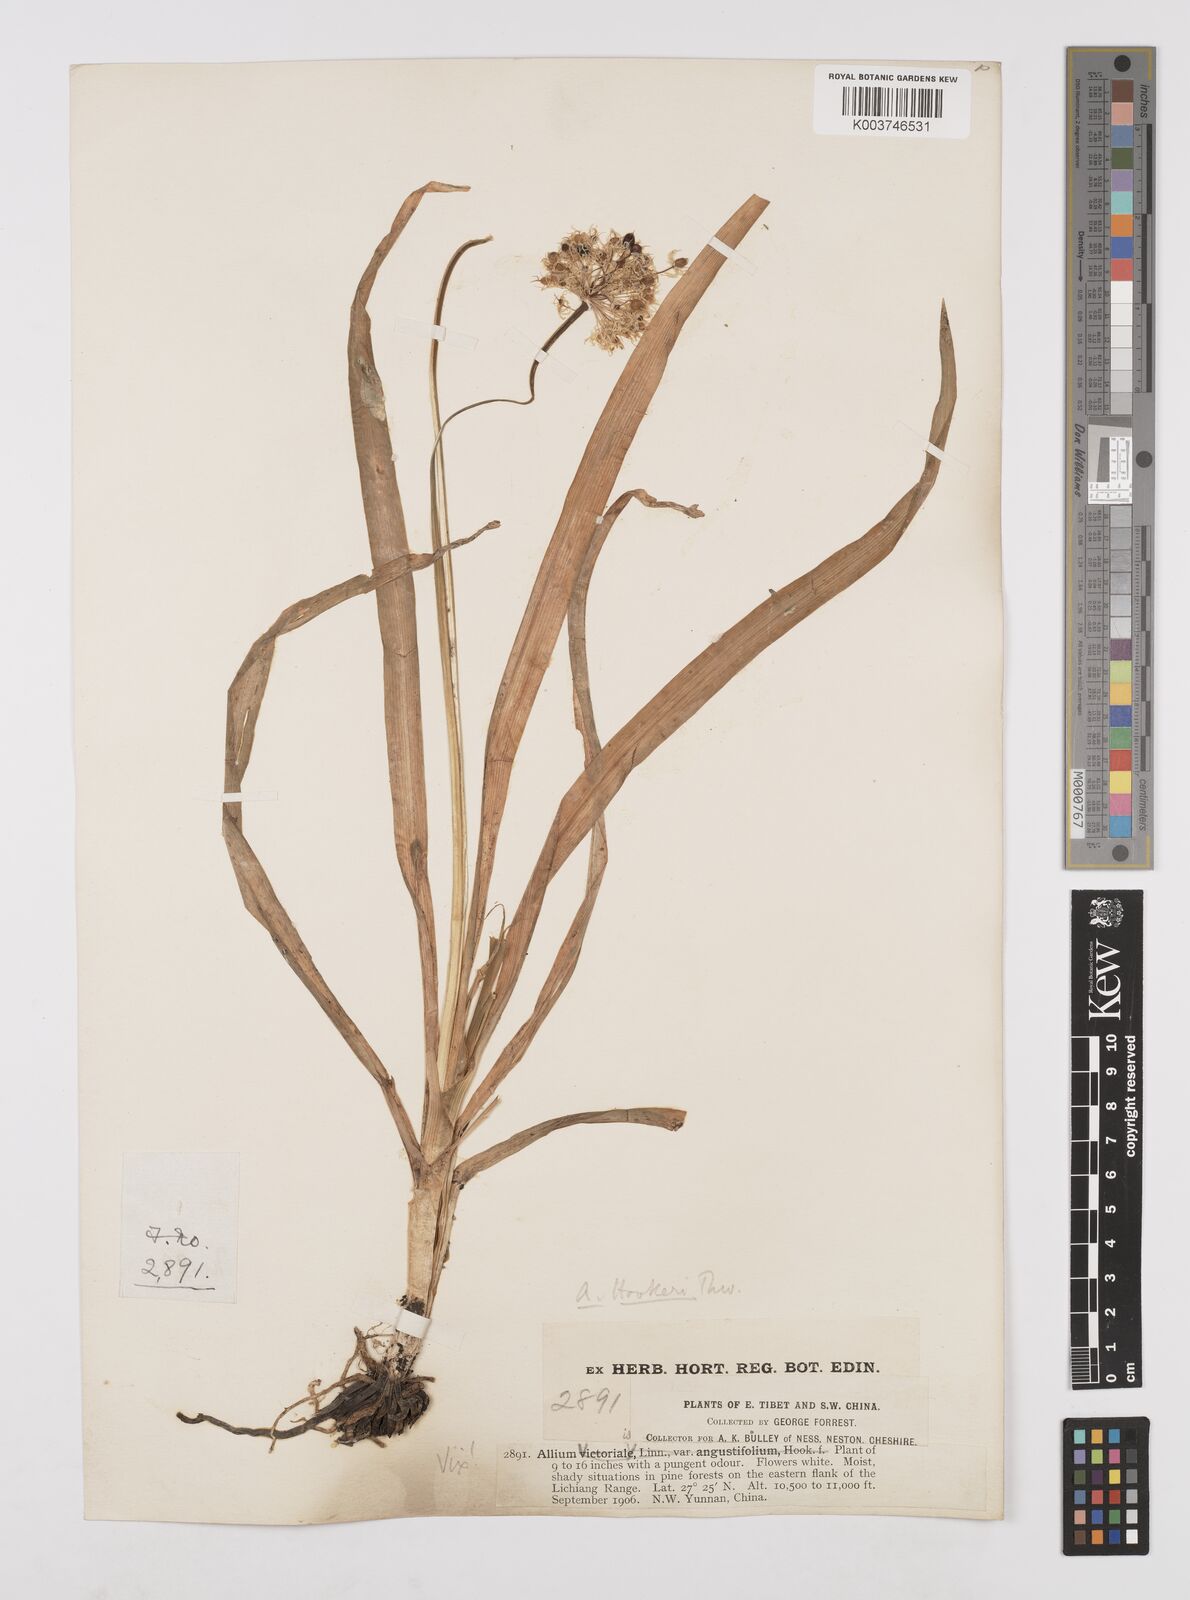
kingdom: Plantae
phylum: Tracheophyta
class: Liliopsida
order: Asparagales
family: Amaryllidaceae
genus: Allium
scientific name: Allium hookeri
